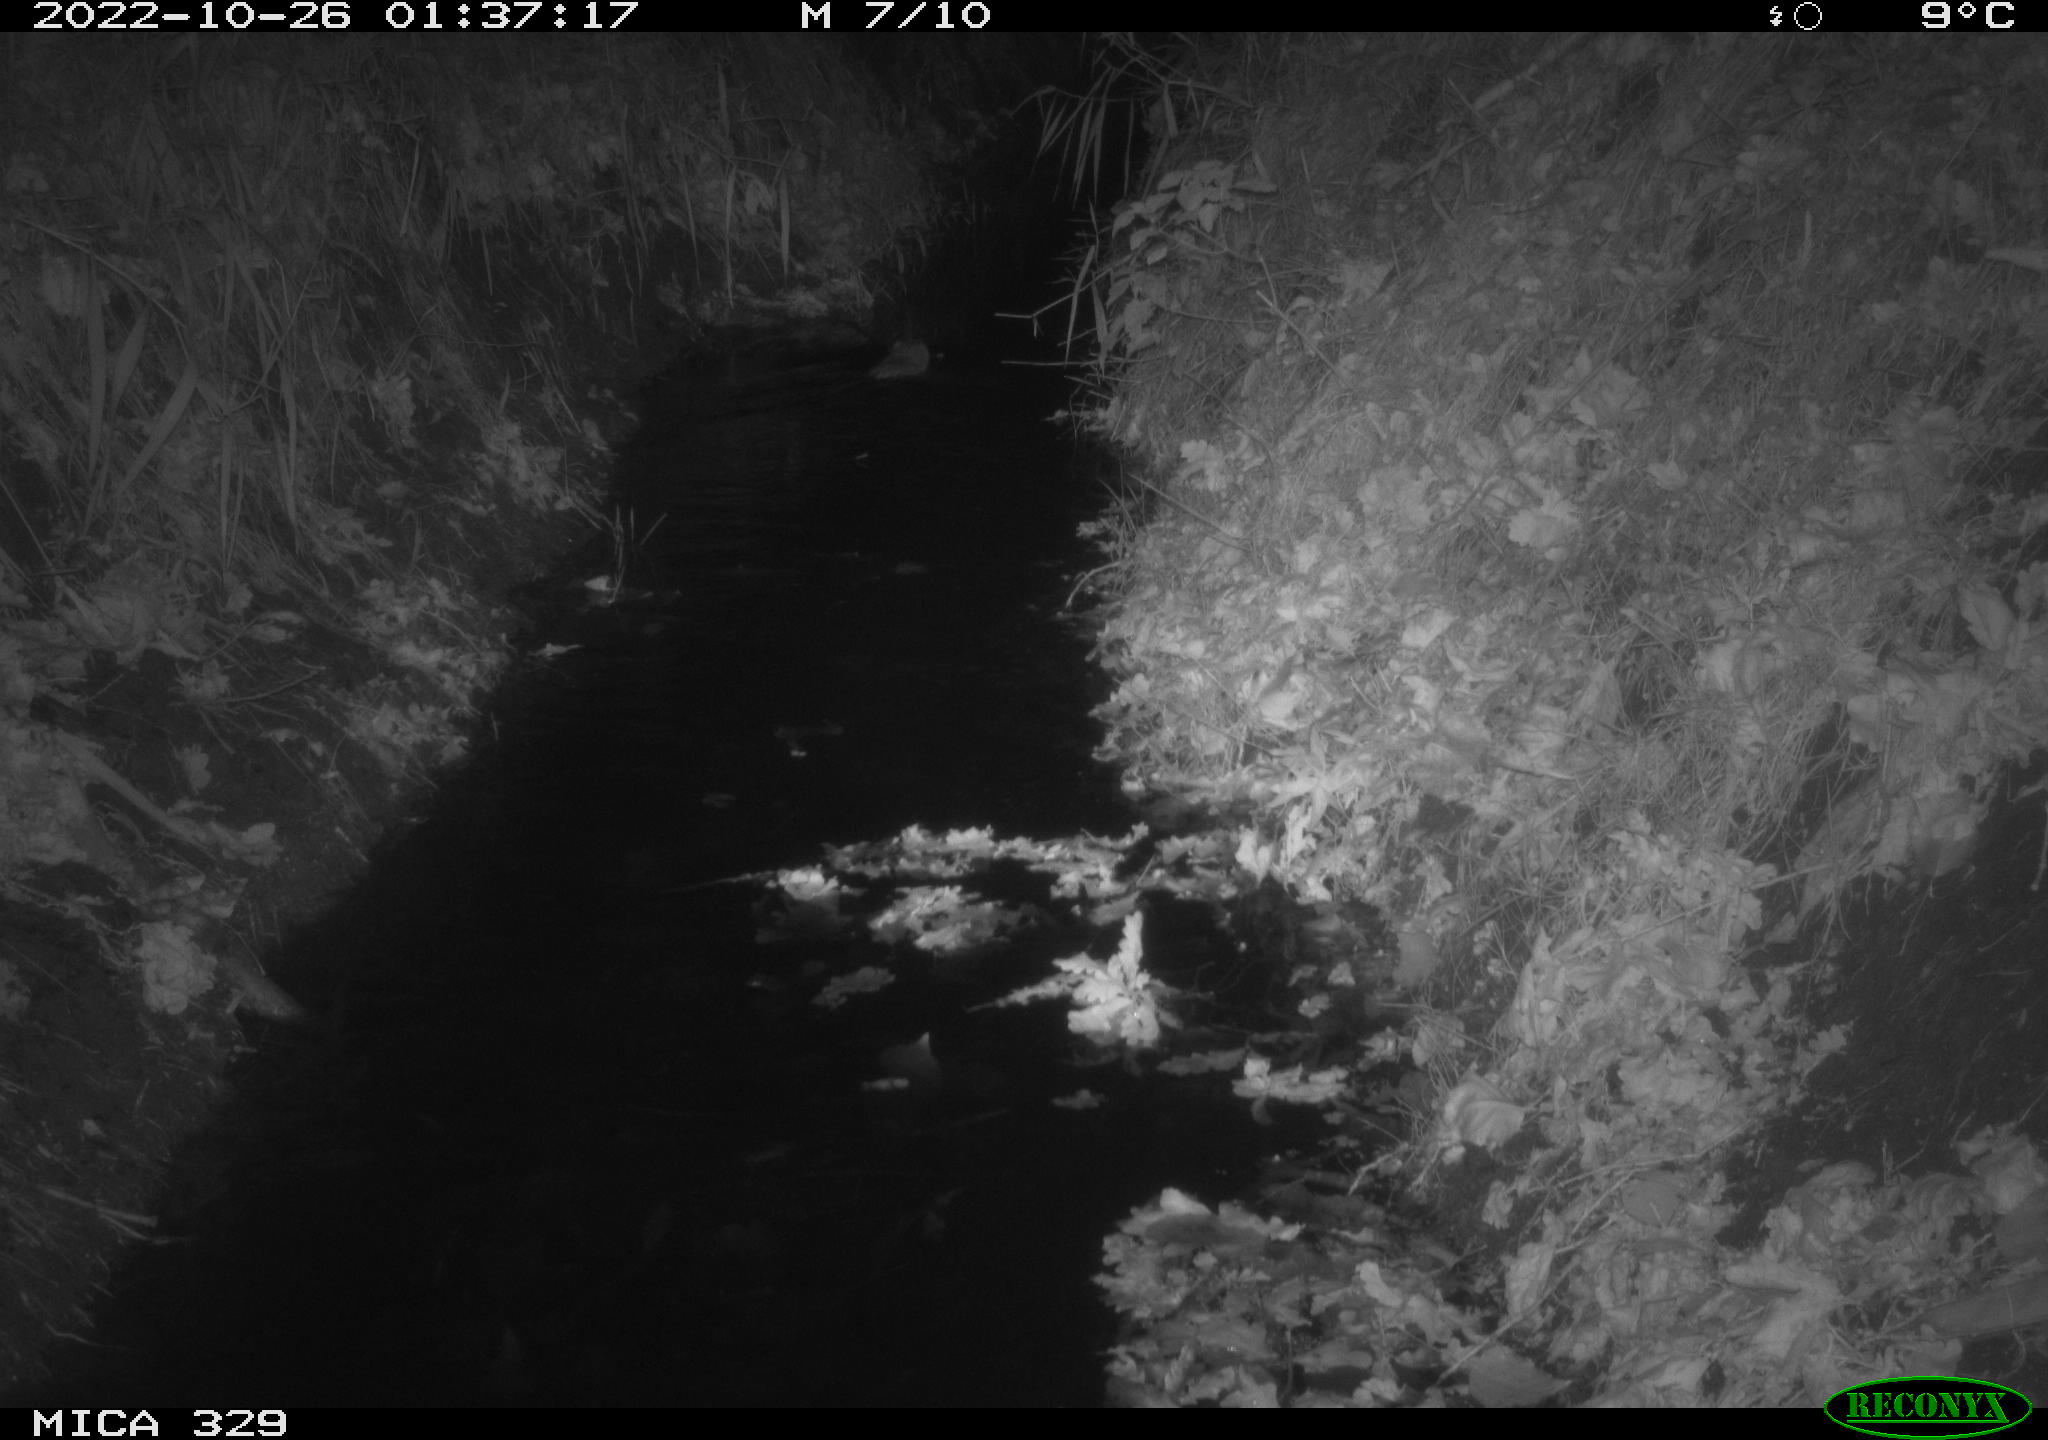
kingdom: Animalia
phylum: Chordata
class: Mammalia
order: Rodentia
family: Cricetidae
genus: Ondatra
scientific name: Ondatra zibethicus
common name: Muskrat
